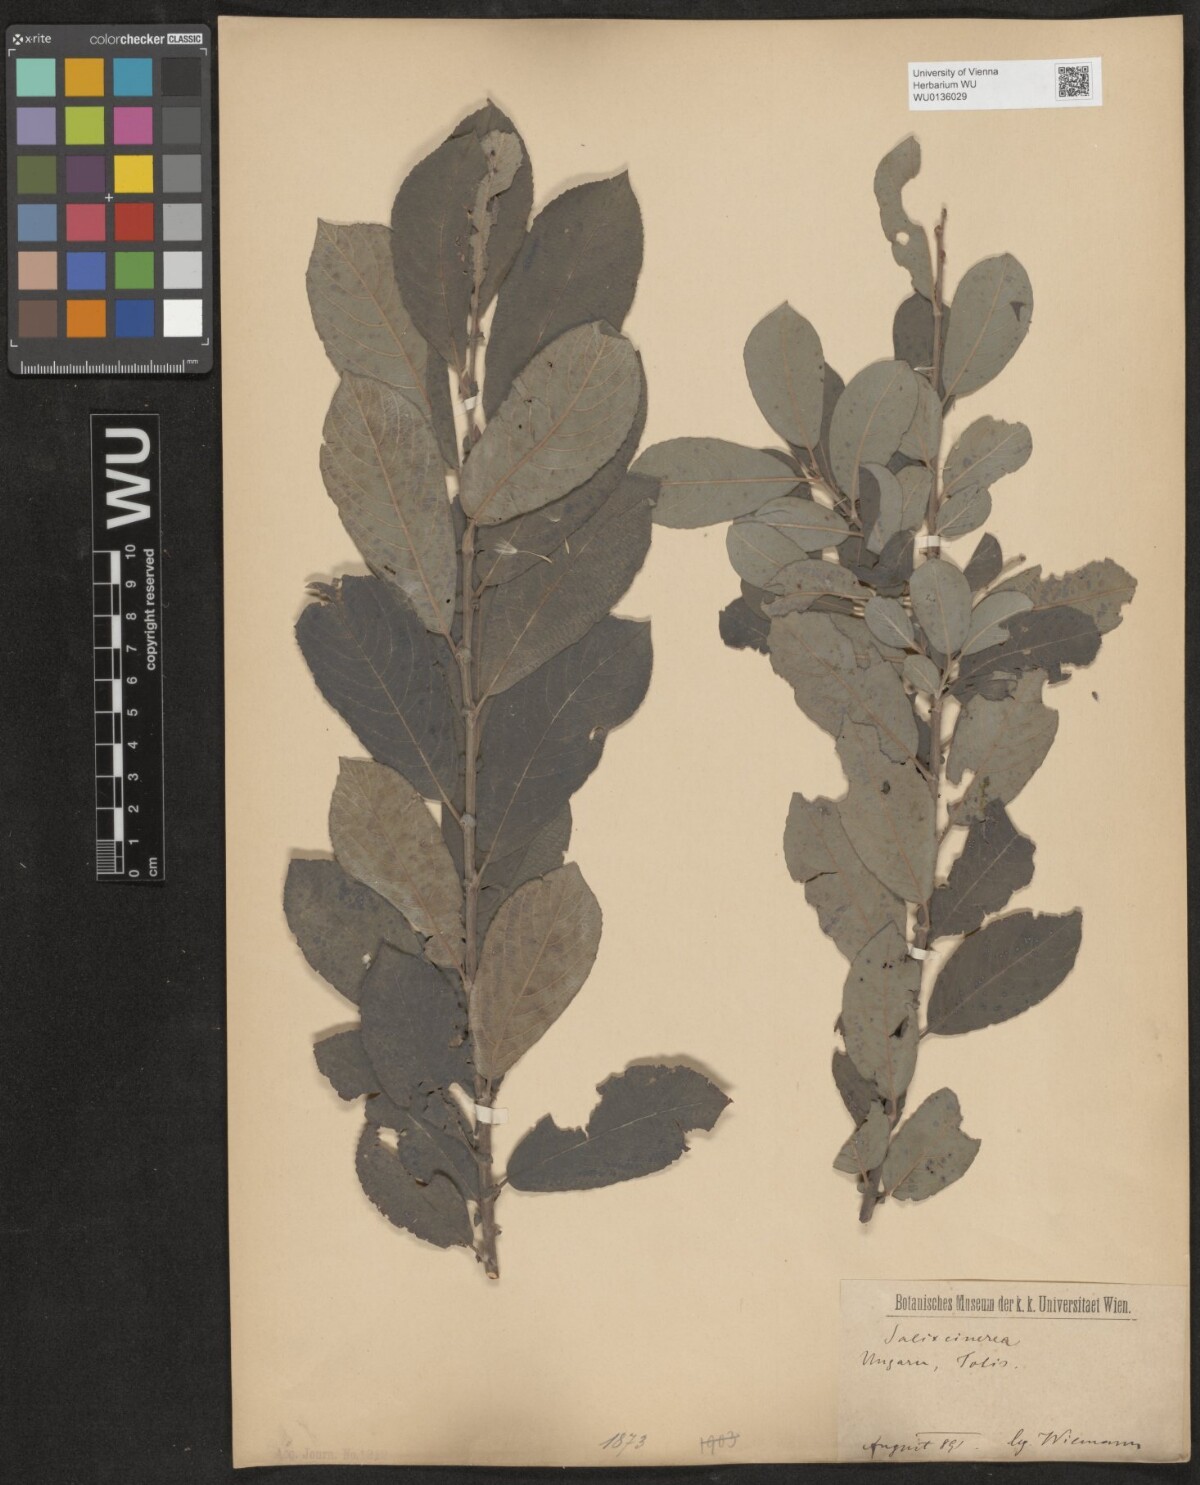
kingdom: Plantae
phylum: Tracheophyta
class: Magnoliopsida
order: Malpighiales
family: Salicaceae
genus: Salix
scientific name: Salix cinerea
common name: Common sallow
